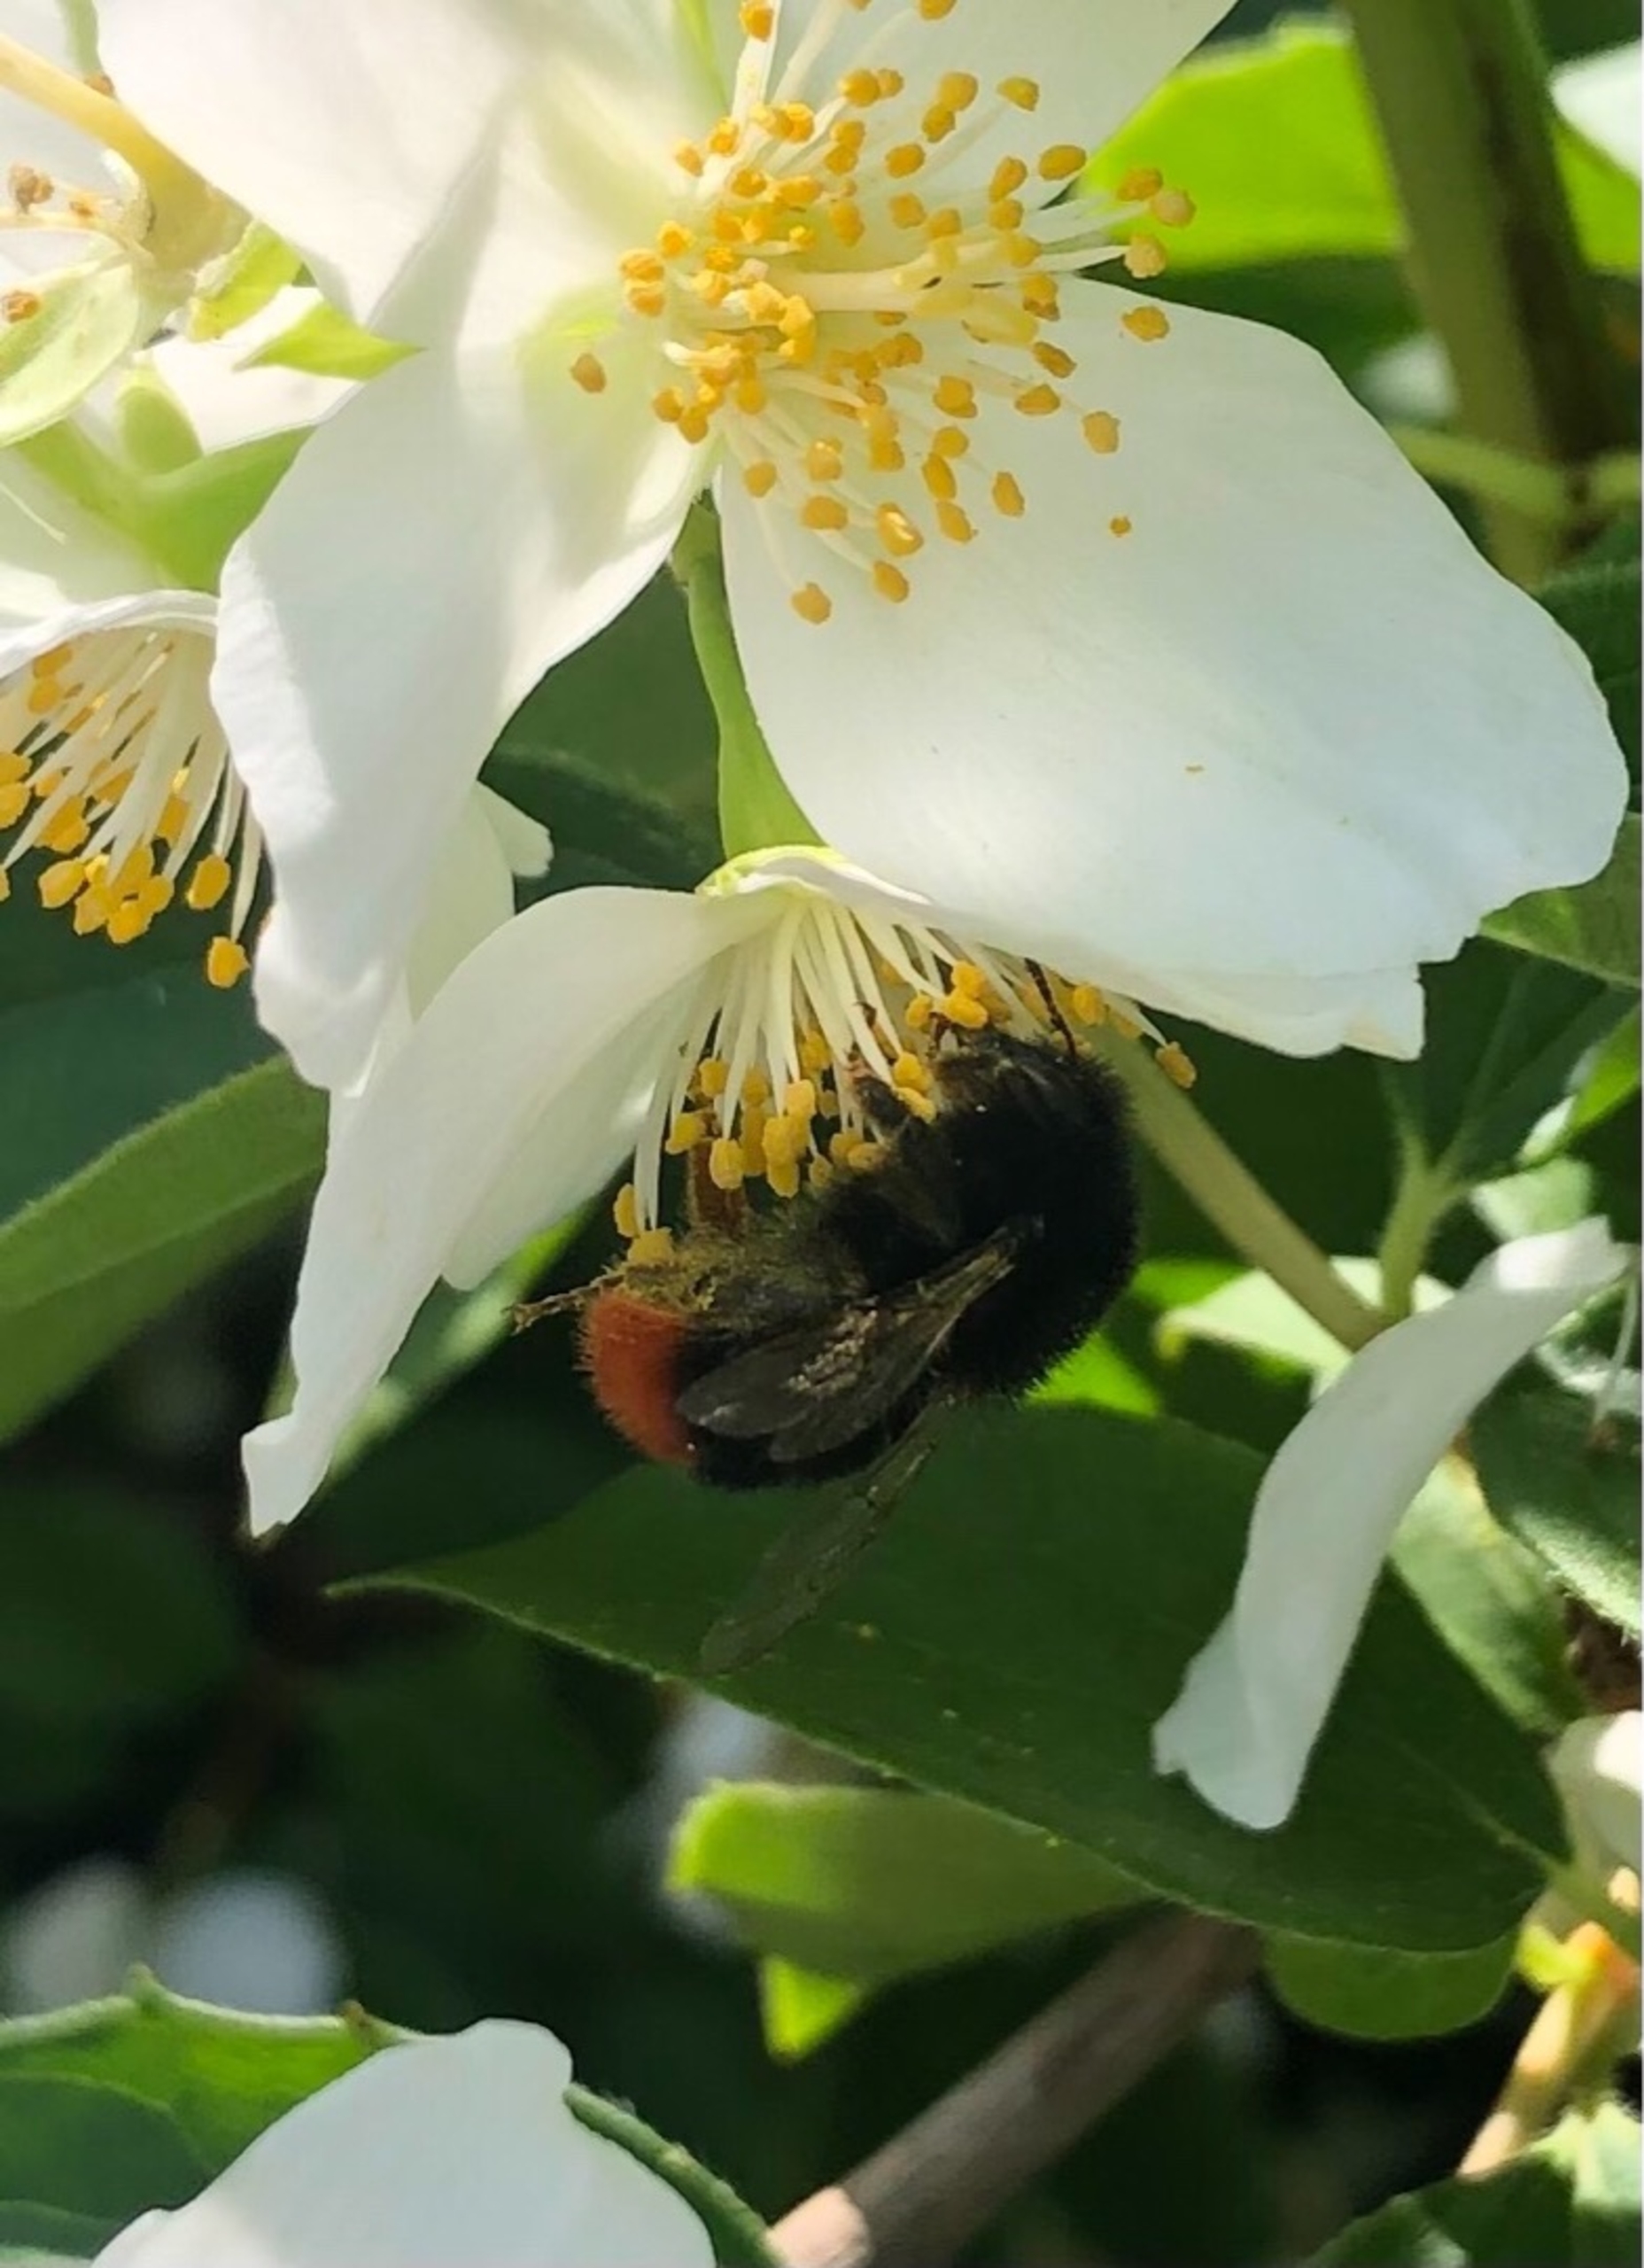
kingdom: Animalia
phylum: Arthropoda
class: Insecta
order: Hymenoptera
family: Apidae
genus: Bombus
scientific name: Bombus lapidarius
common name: Stenhumle
